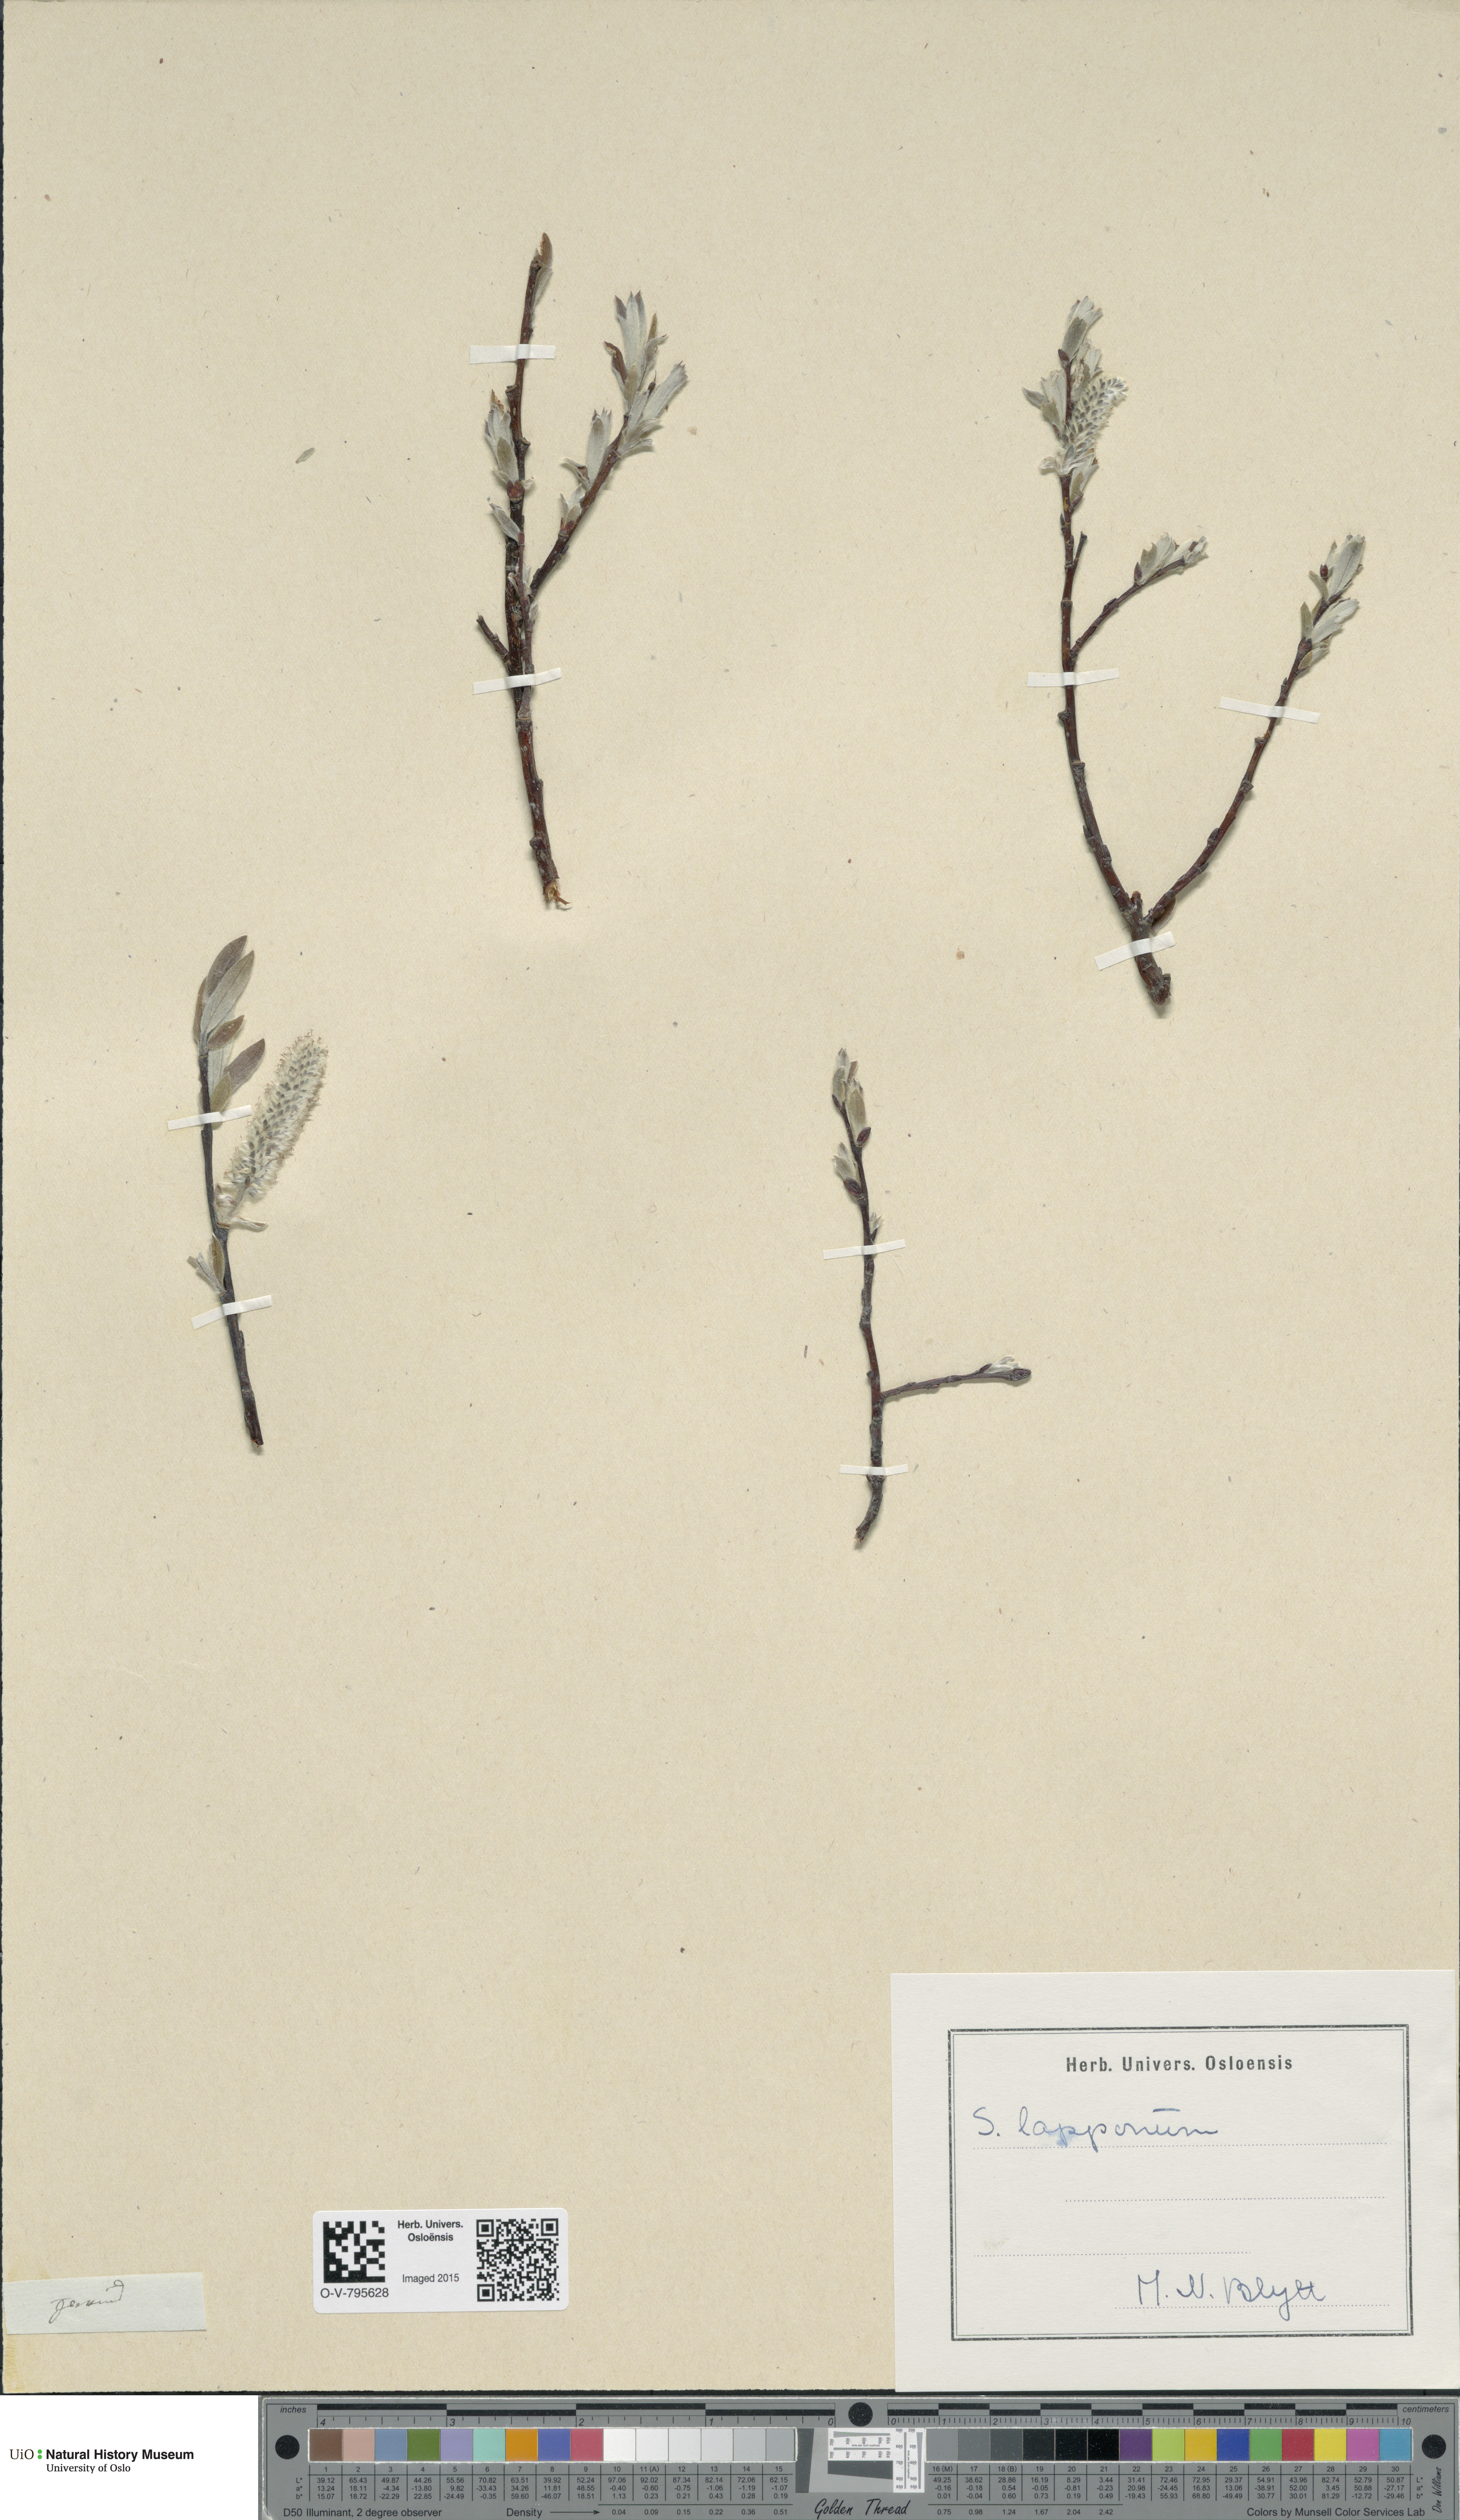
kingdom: Plantae
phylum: Tracheophyta
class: Magnoliopsida
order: Malpighiales
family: Salicaceae
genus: Salix
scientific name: Salix lapponum
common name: Downy willow
